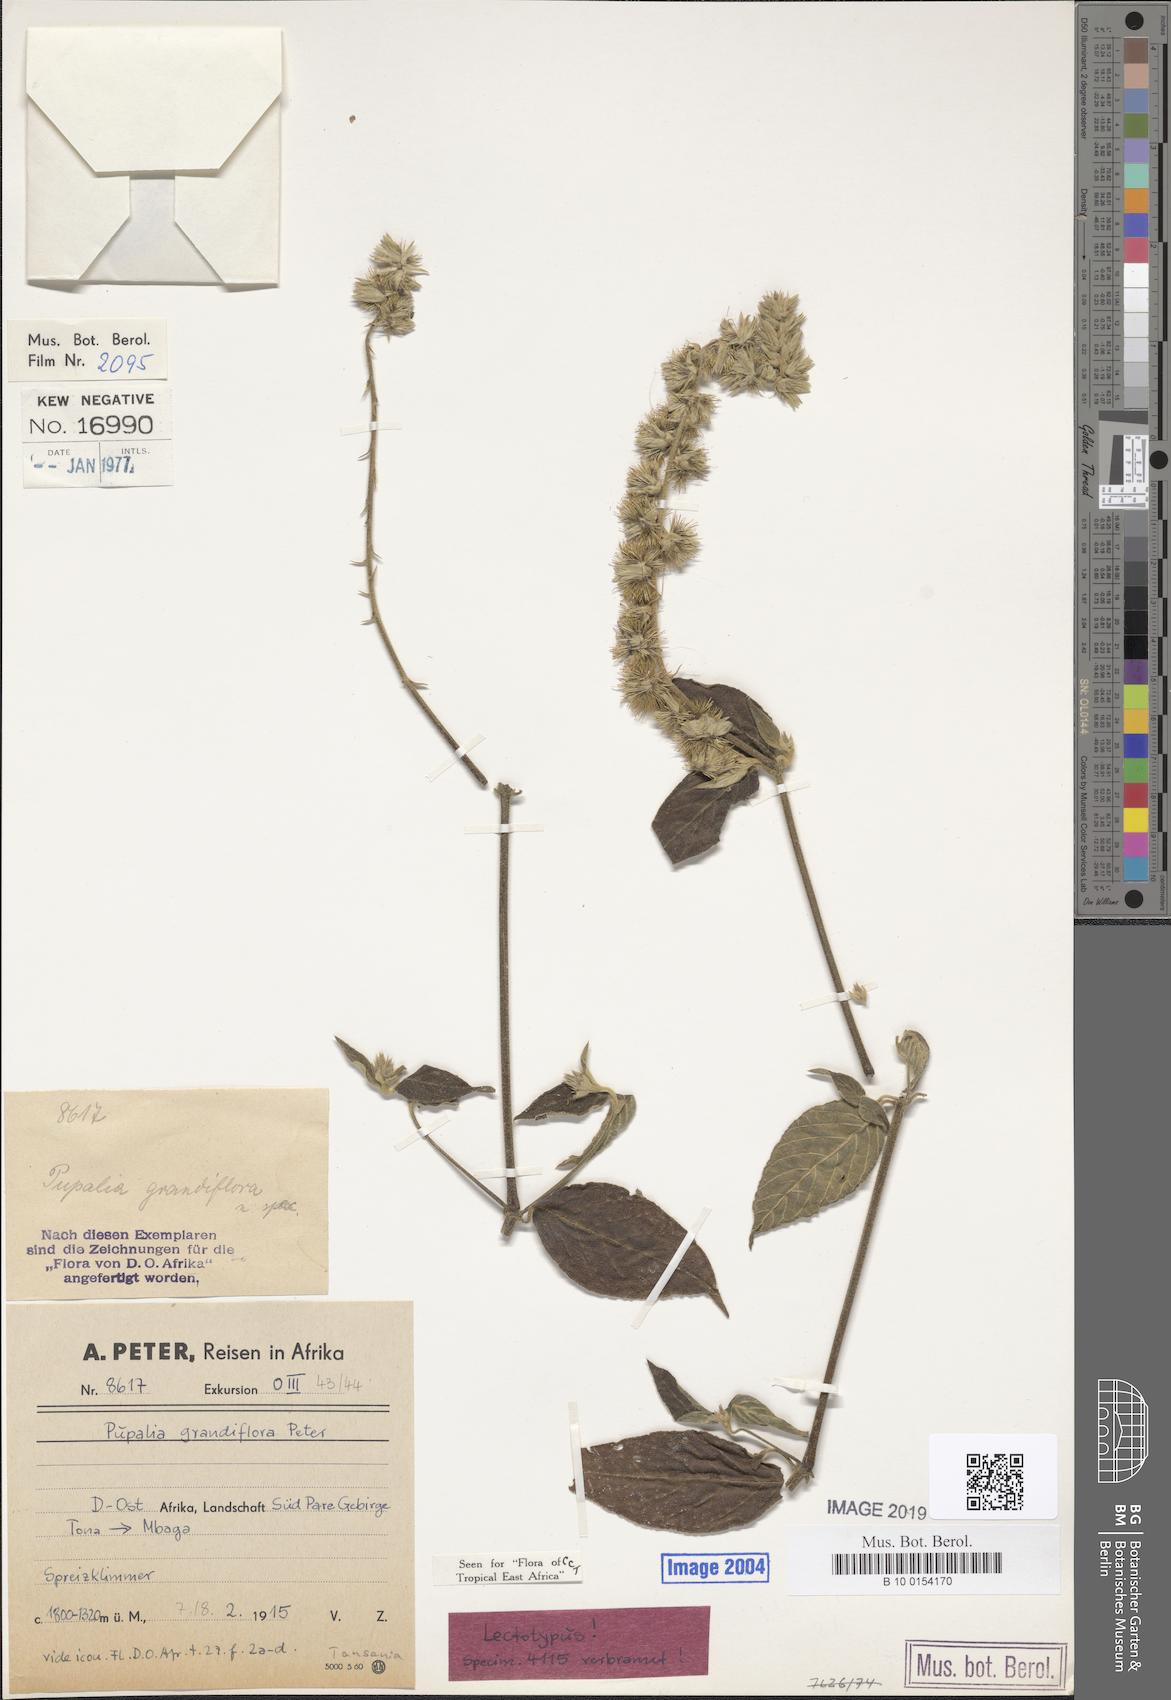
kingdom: Plantae
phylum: Tracheophyta
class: Magnoliopsida
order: Caryophyllales
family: Amaranthaceae
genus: Pupalia
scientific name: Pupalia grandiflora
